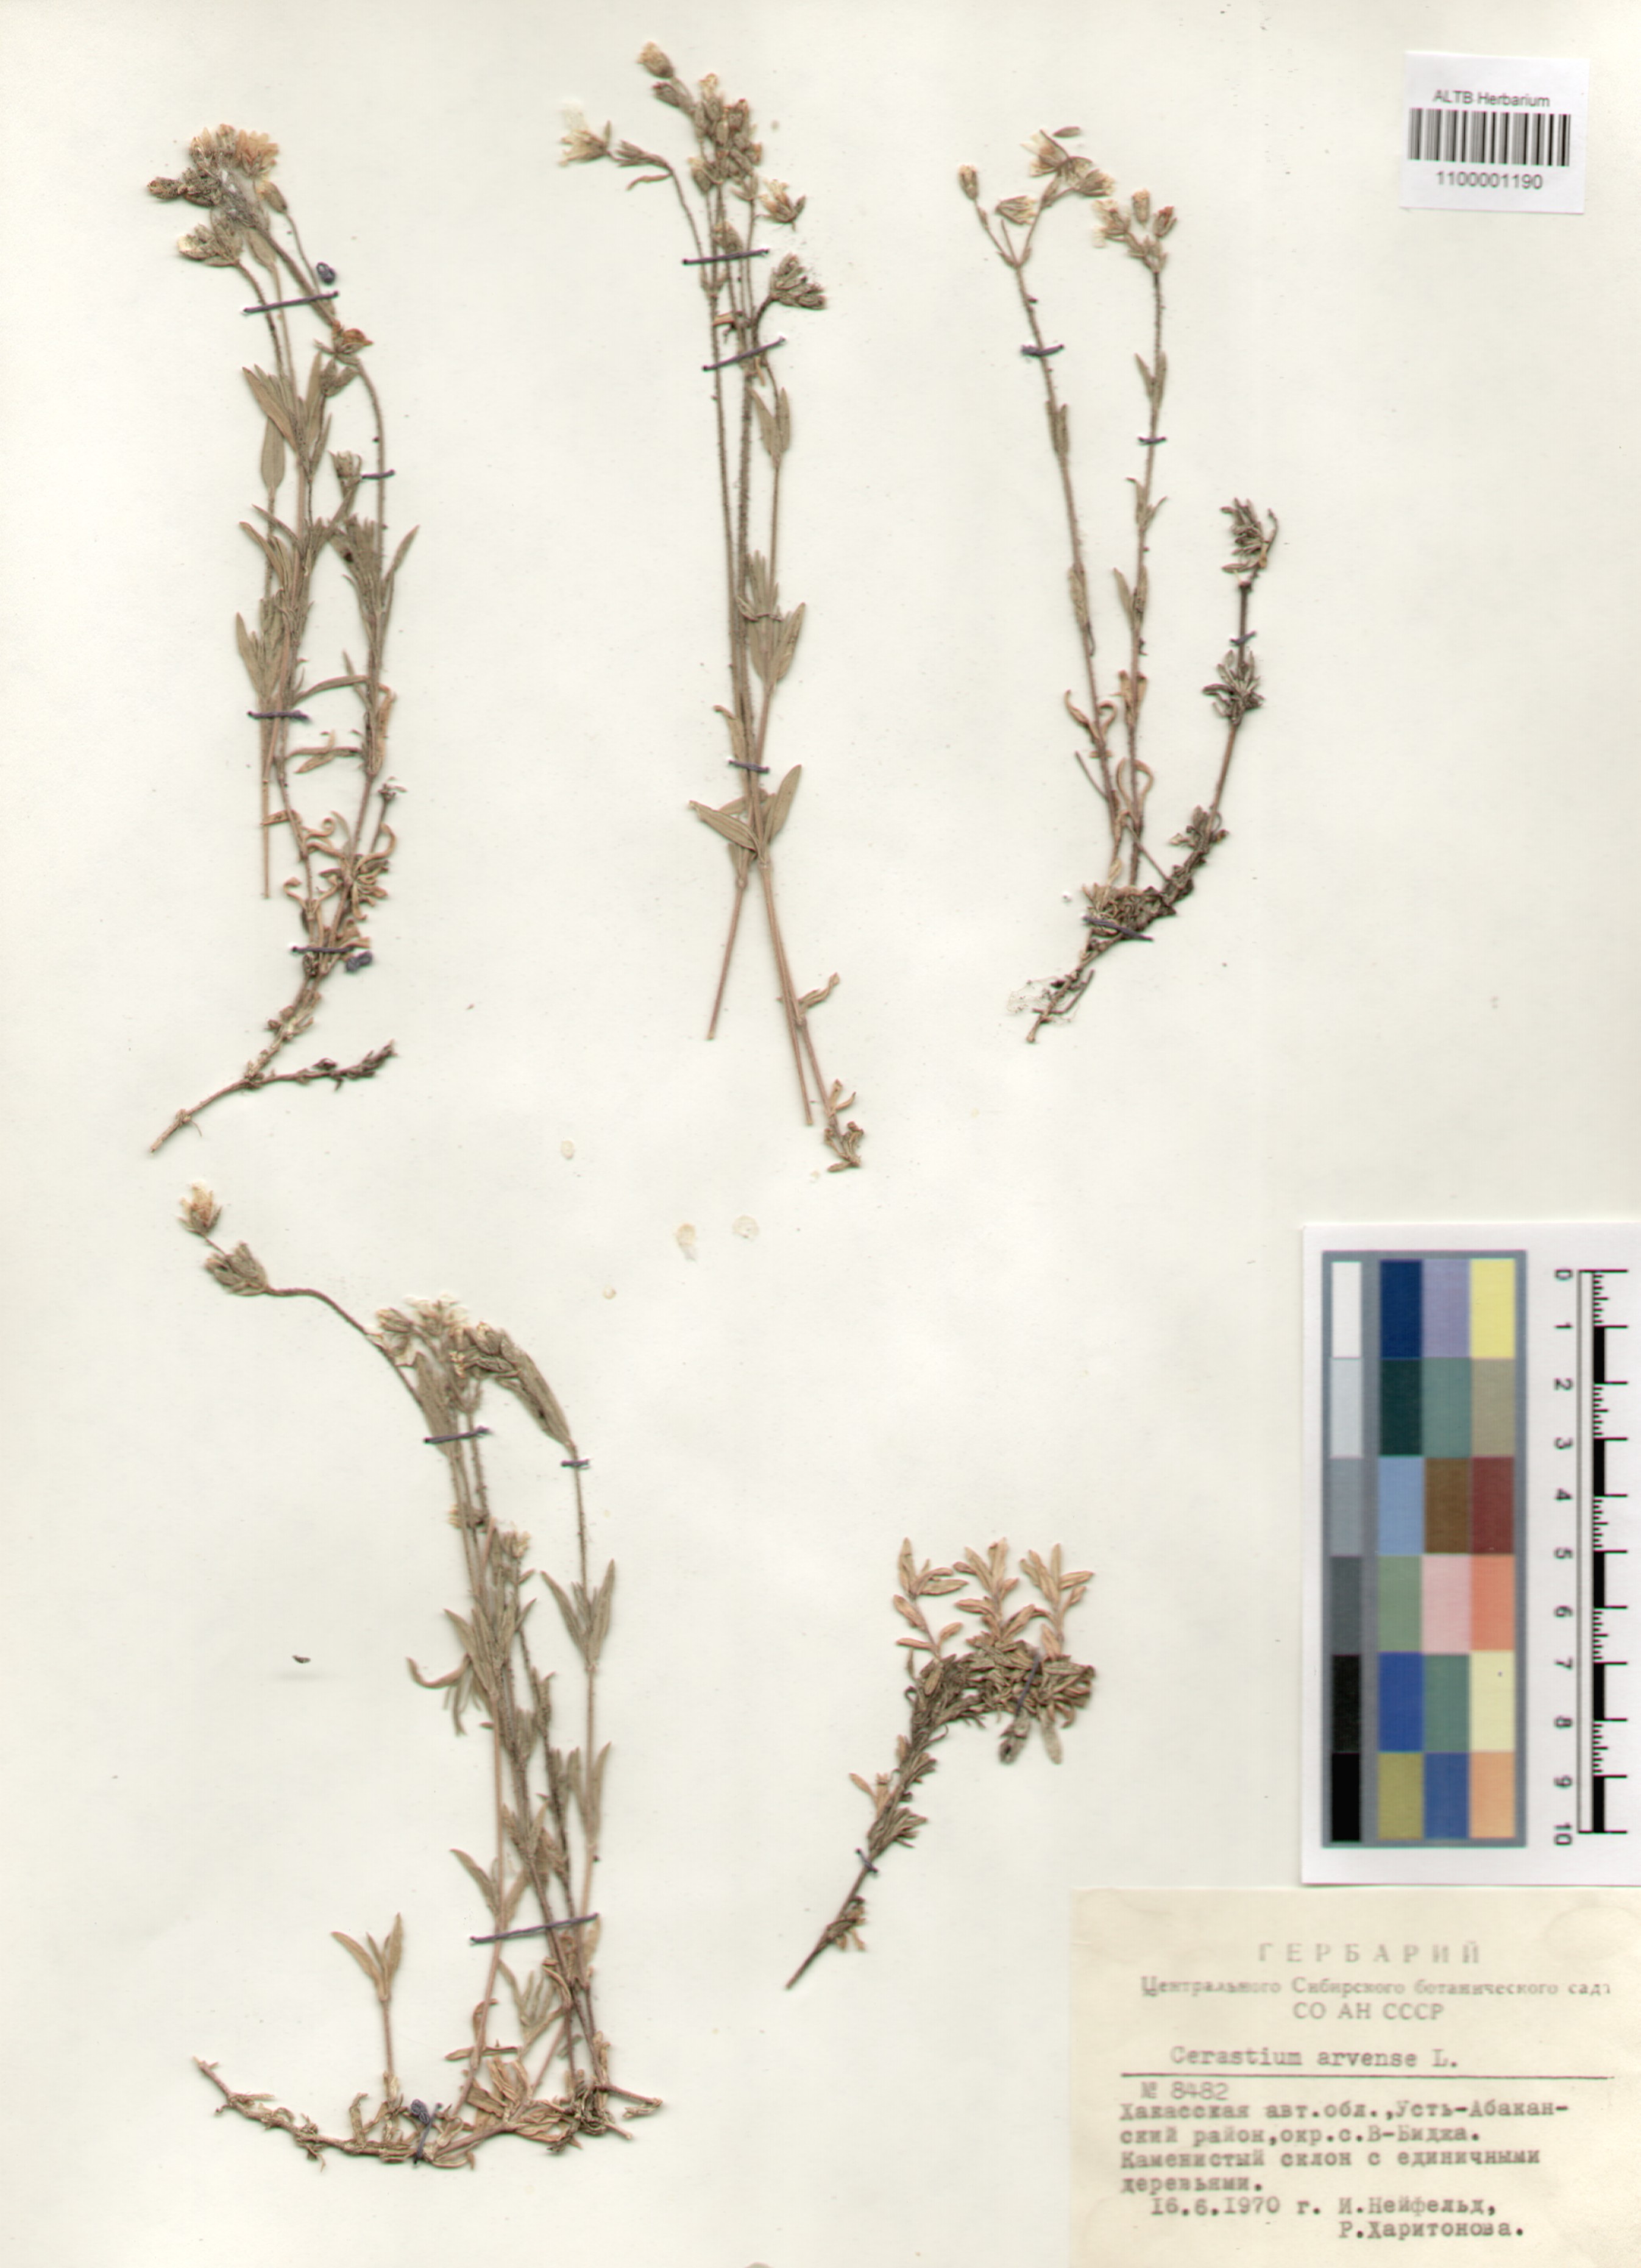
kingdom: Plantae
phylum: Tracheophyta
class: Magnoliopsida
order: Caryophyllales
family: Caryophyllaceae
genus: Cerastium
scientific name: Cerastium arvense
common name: Field mouse-ear
